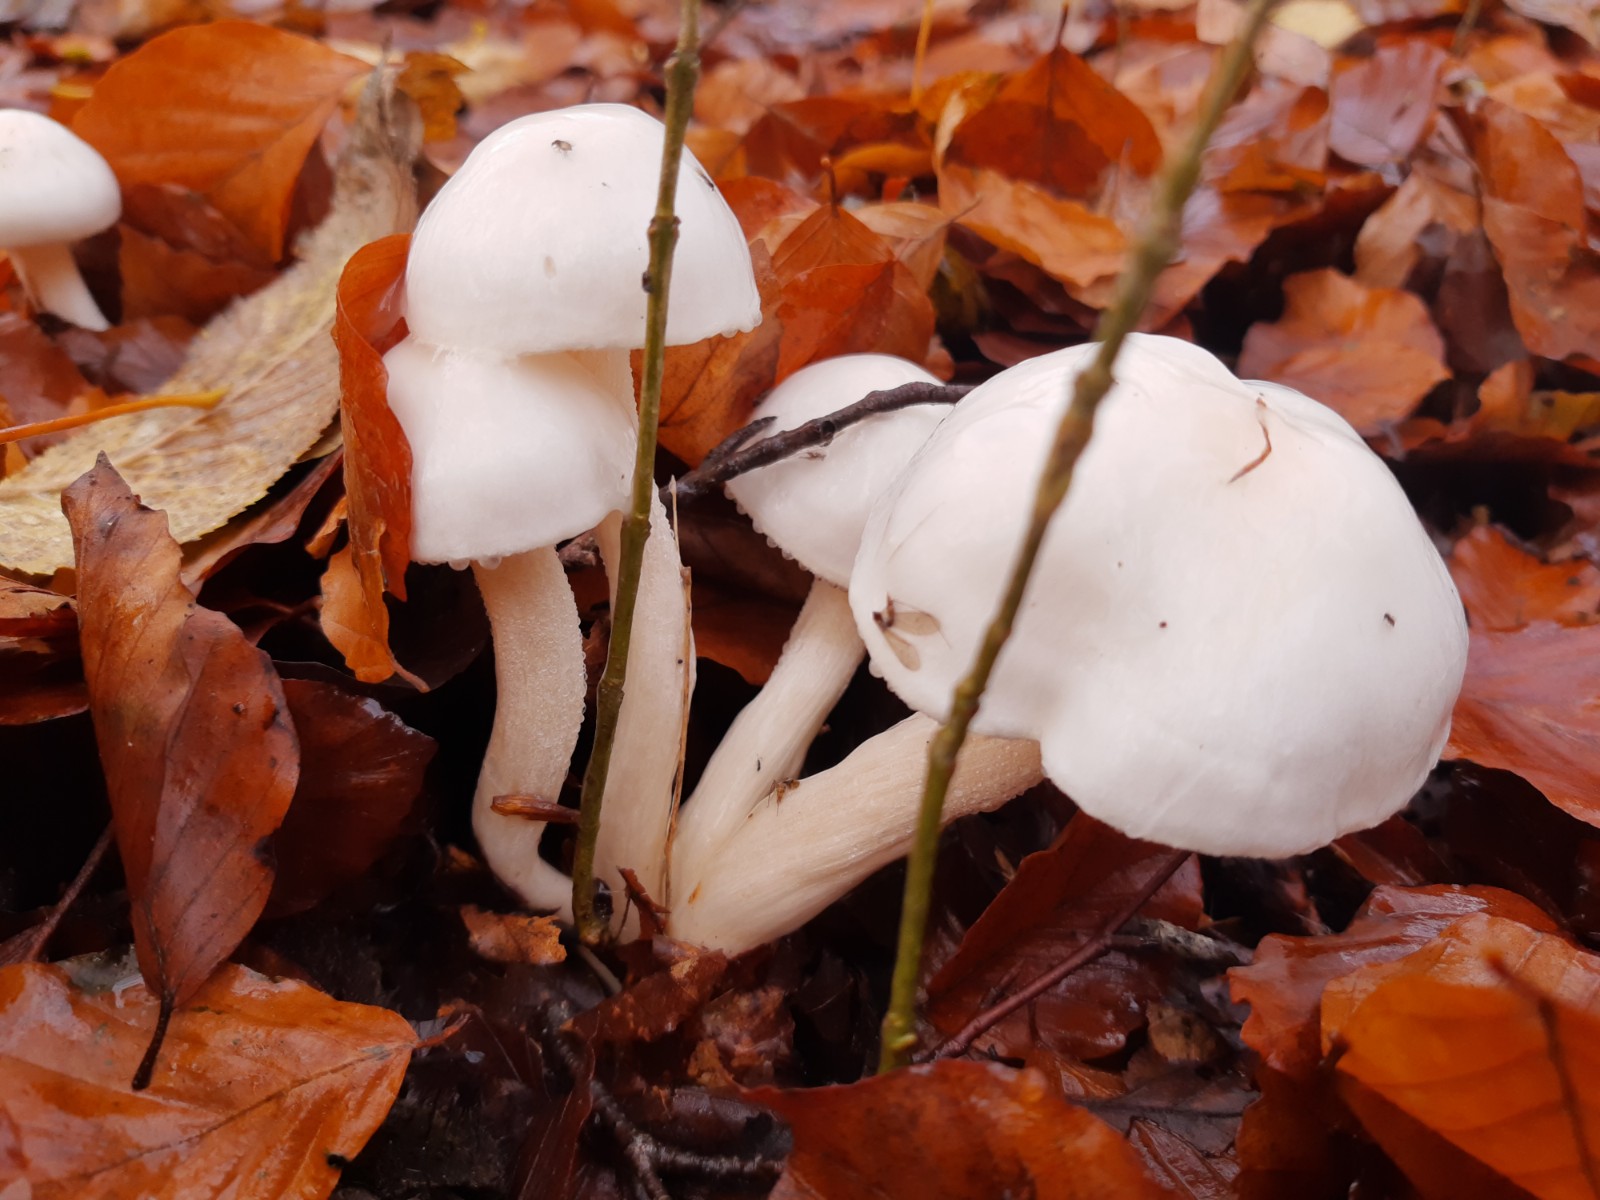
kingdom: Fungi
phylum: Basidiomycota
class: Agaricomycetes
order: Agaricales
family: Hygrophoraceae
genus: Hygrophorus
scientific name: Hygrophorus discoxanthus
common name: ildelugtende sneglehat
